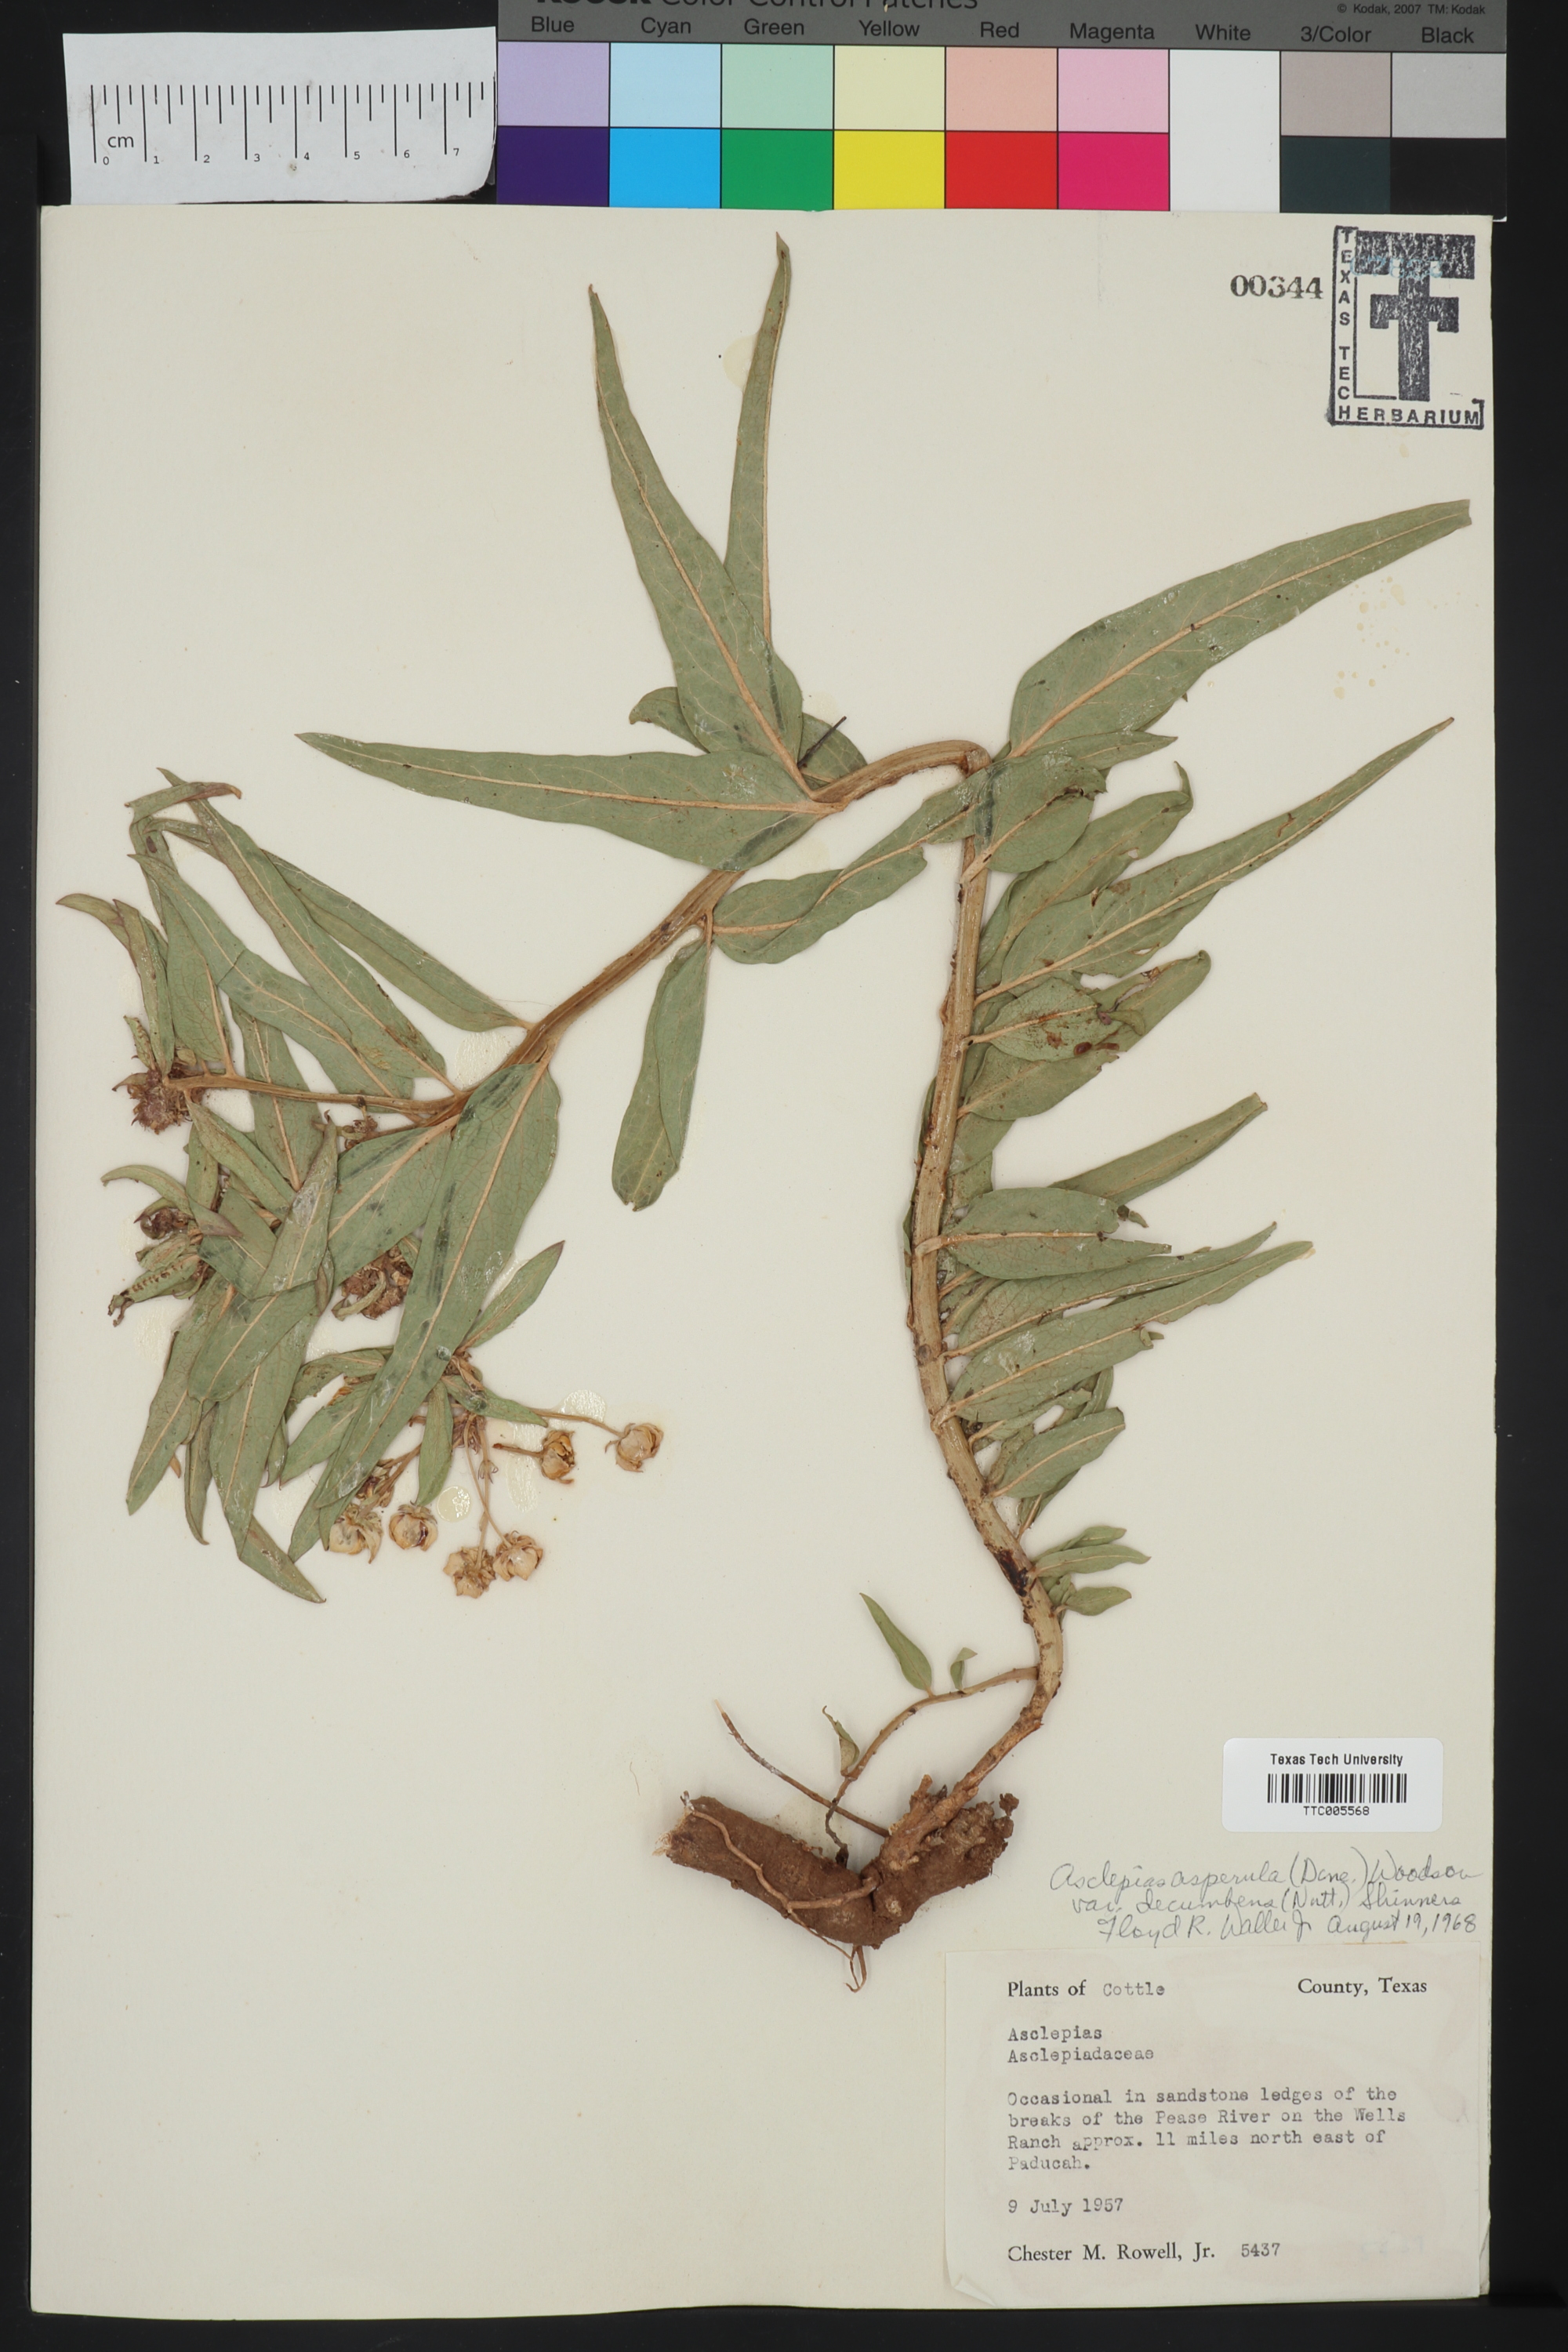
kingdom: Plantae
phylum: Tracheophyta
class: Magnoliopsida
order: Gentianales
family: Apocynaceae
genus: Asclepias
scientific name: Asclepias asperula
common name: Antelope horns
